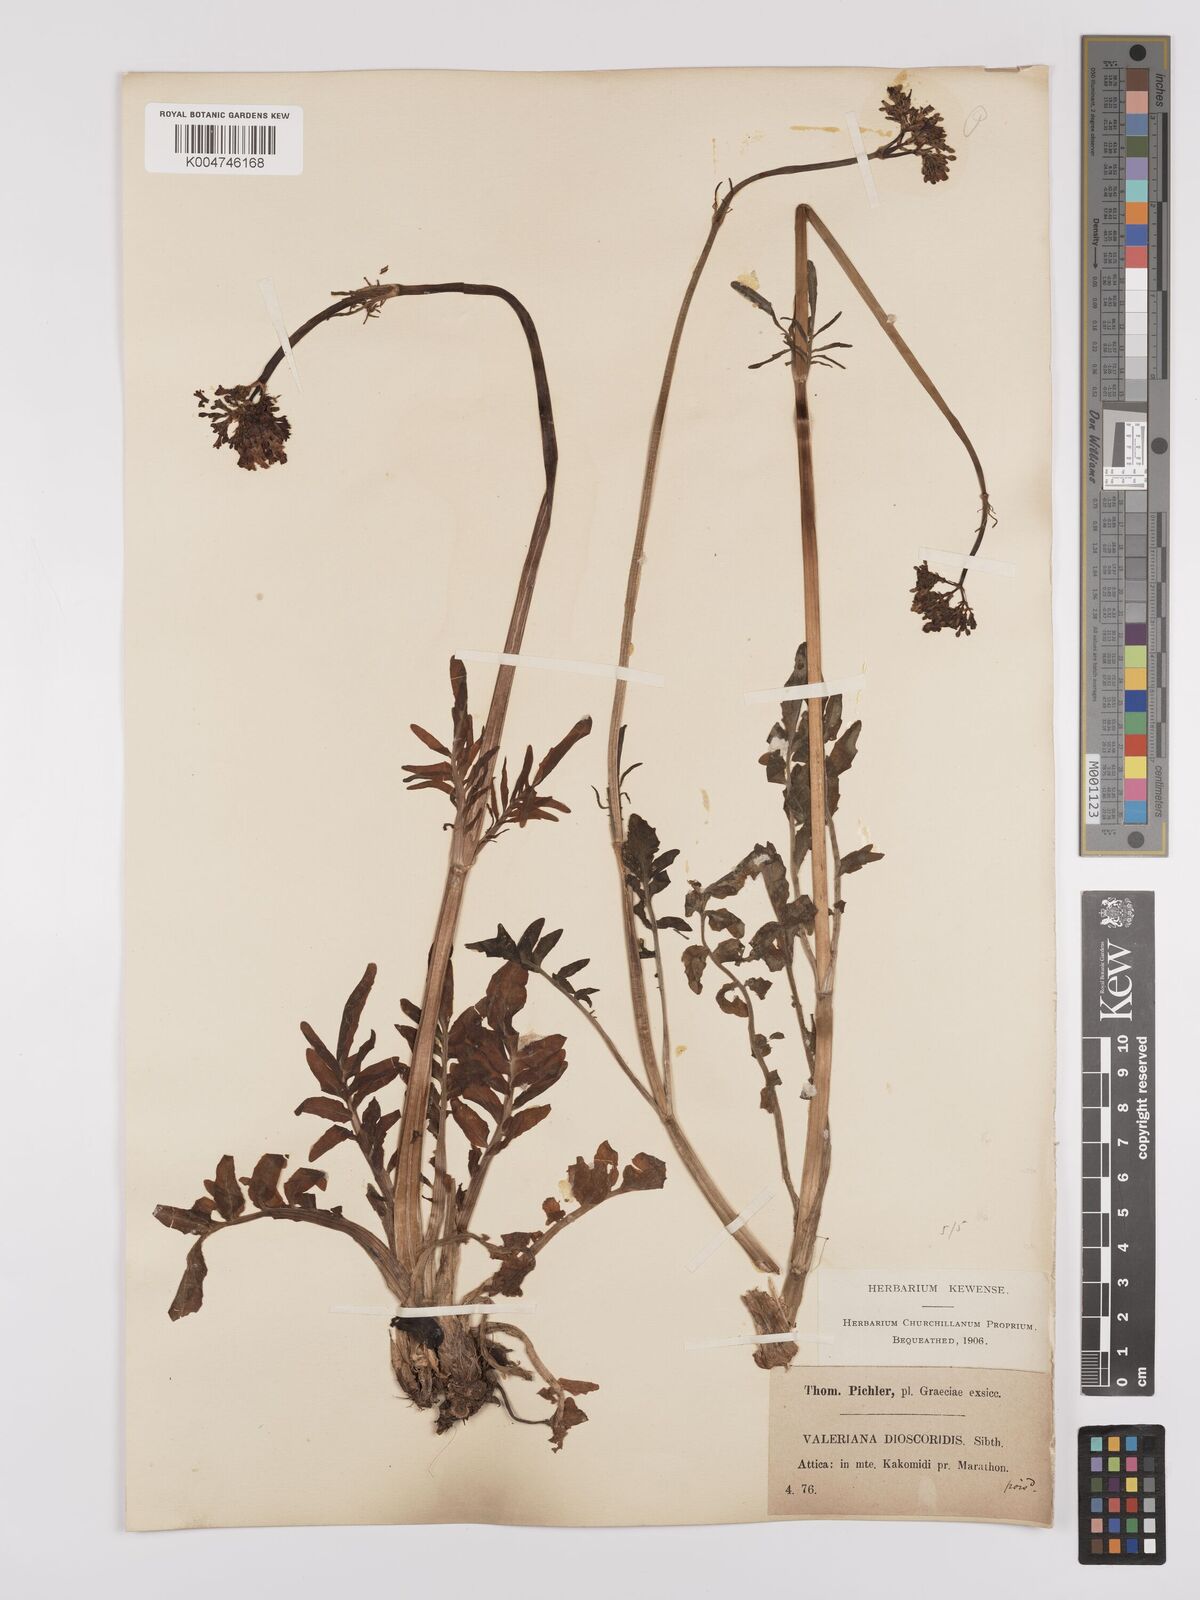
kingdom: Plantae
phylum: Tracheophyta
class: Magnoliopsida
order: Dipsacales
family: Caprifoliaceae
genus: Valeriana
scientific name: Valeriana dioscoridis
